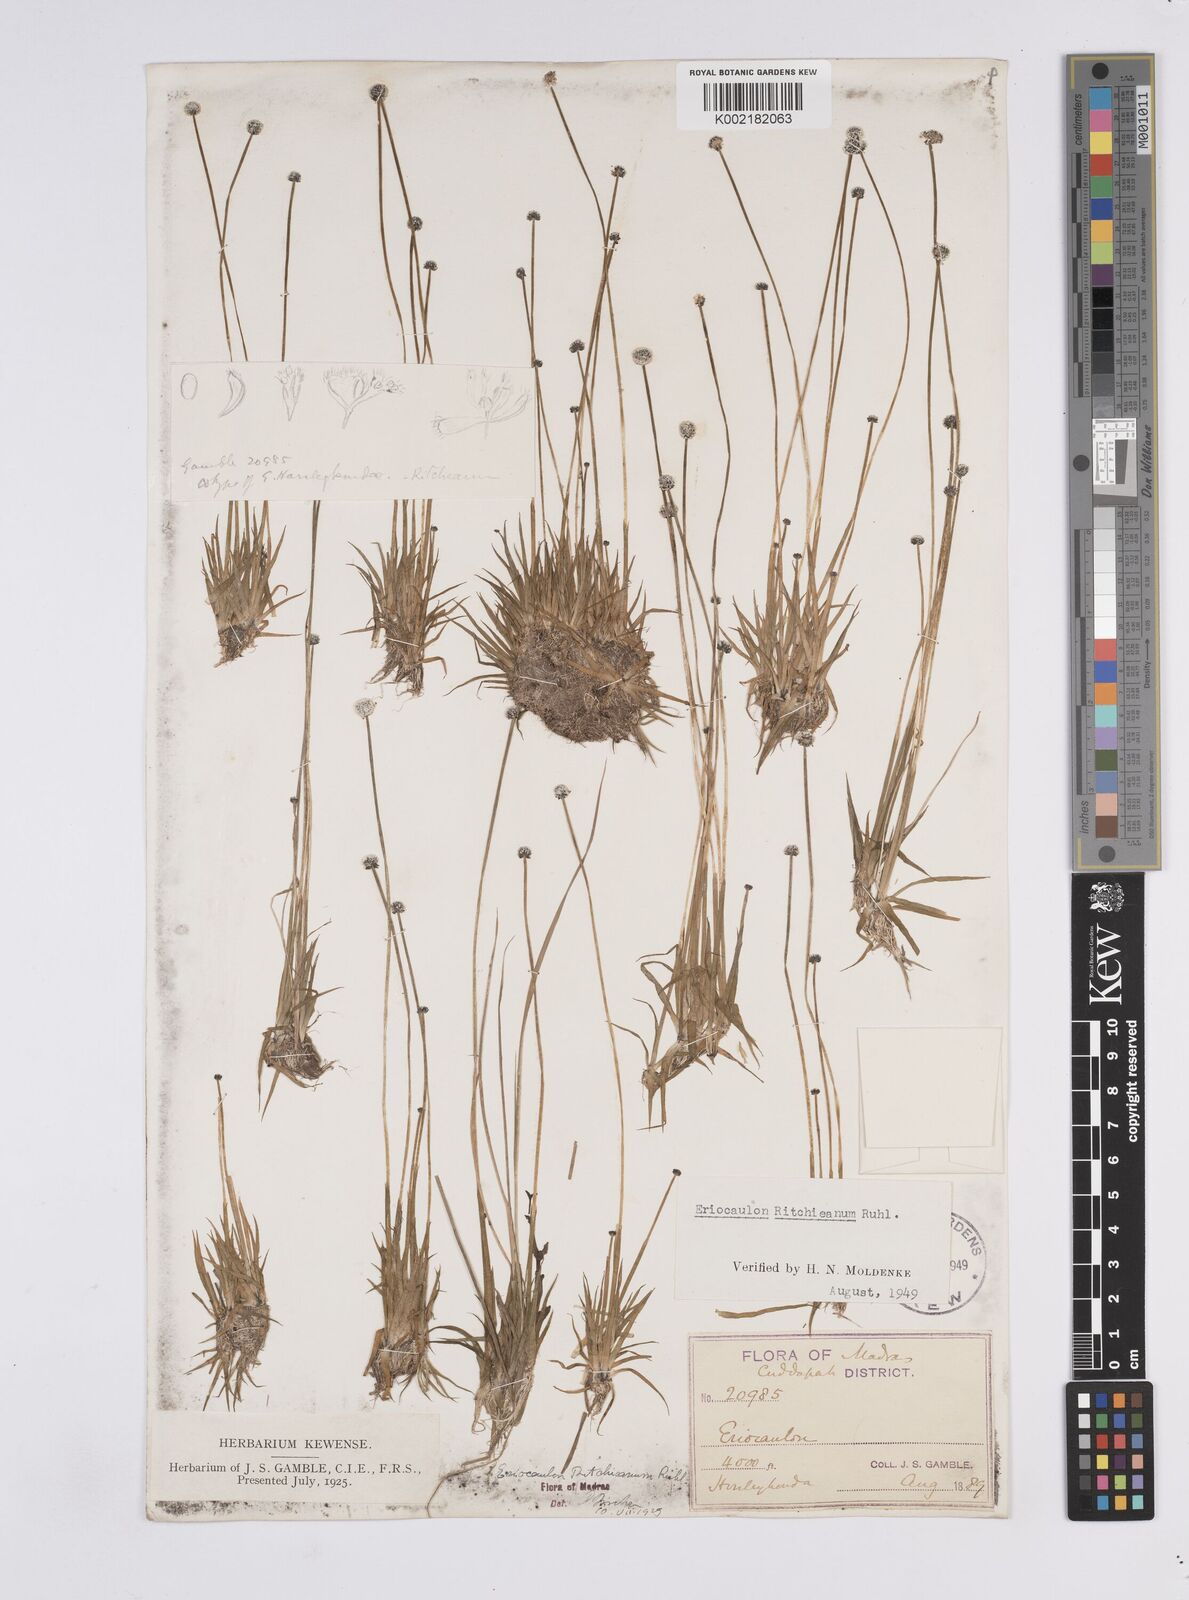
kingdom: Plantae
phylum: Tracheophyta
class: Liliopsida
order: Poales
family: Eriocaulaceae
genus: Eriocaulon
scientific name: Eriocaulon ritchieanum
